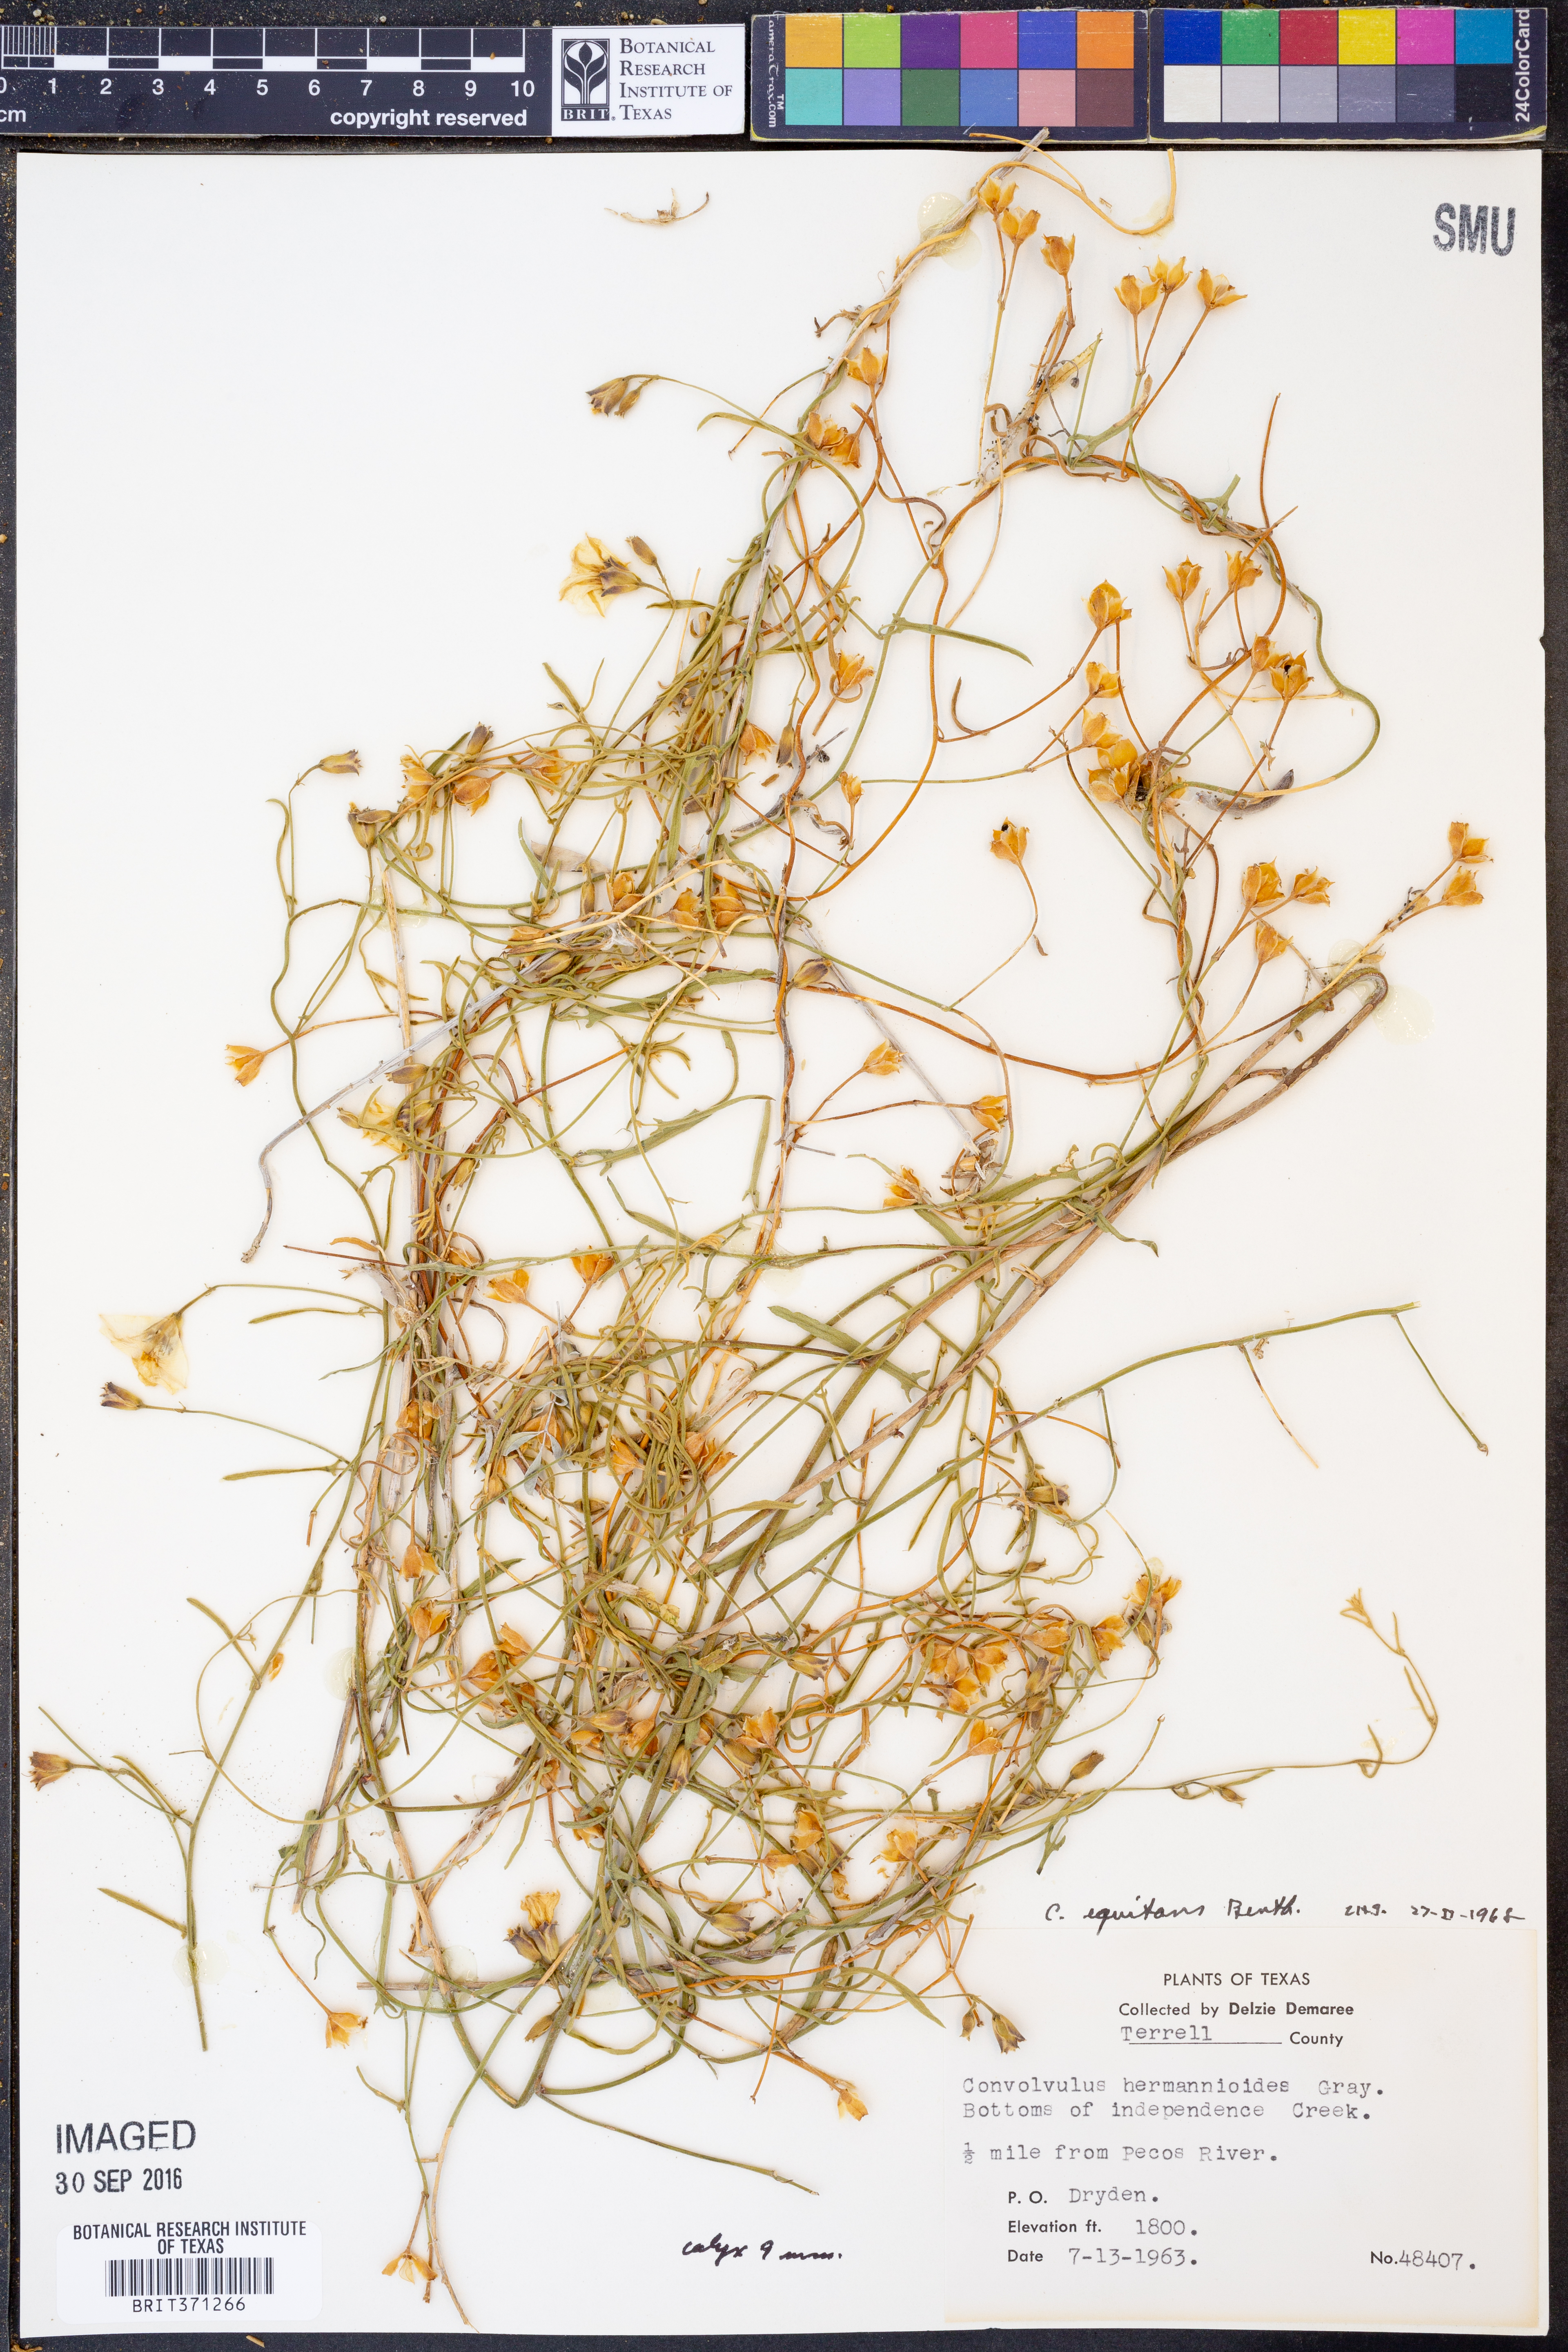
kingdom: Plantae
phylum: Tracheophyta
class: Magnoliopsida
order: Solanales
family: Convolvulaceae
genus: Convolvulus
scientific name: Convolvulus equitans
